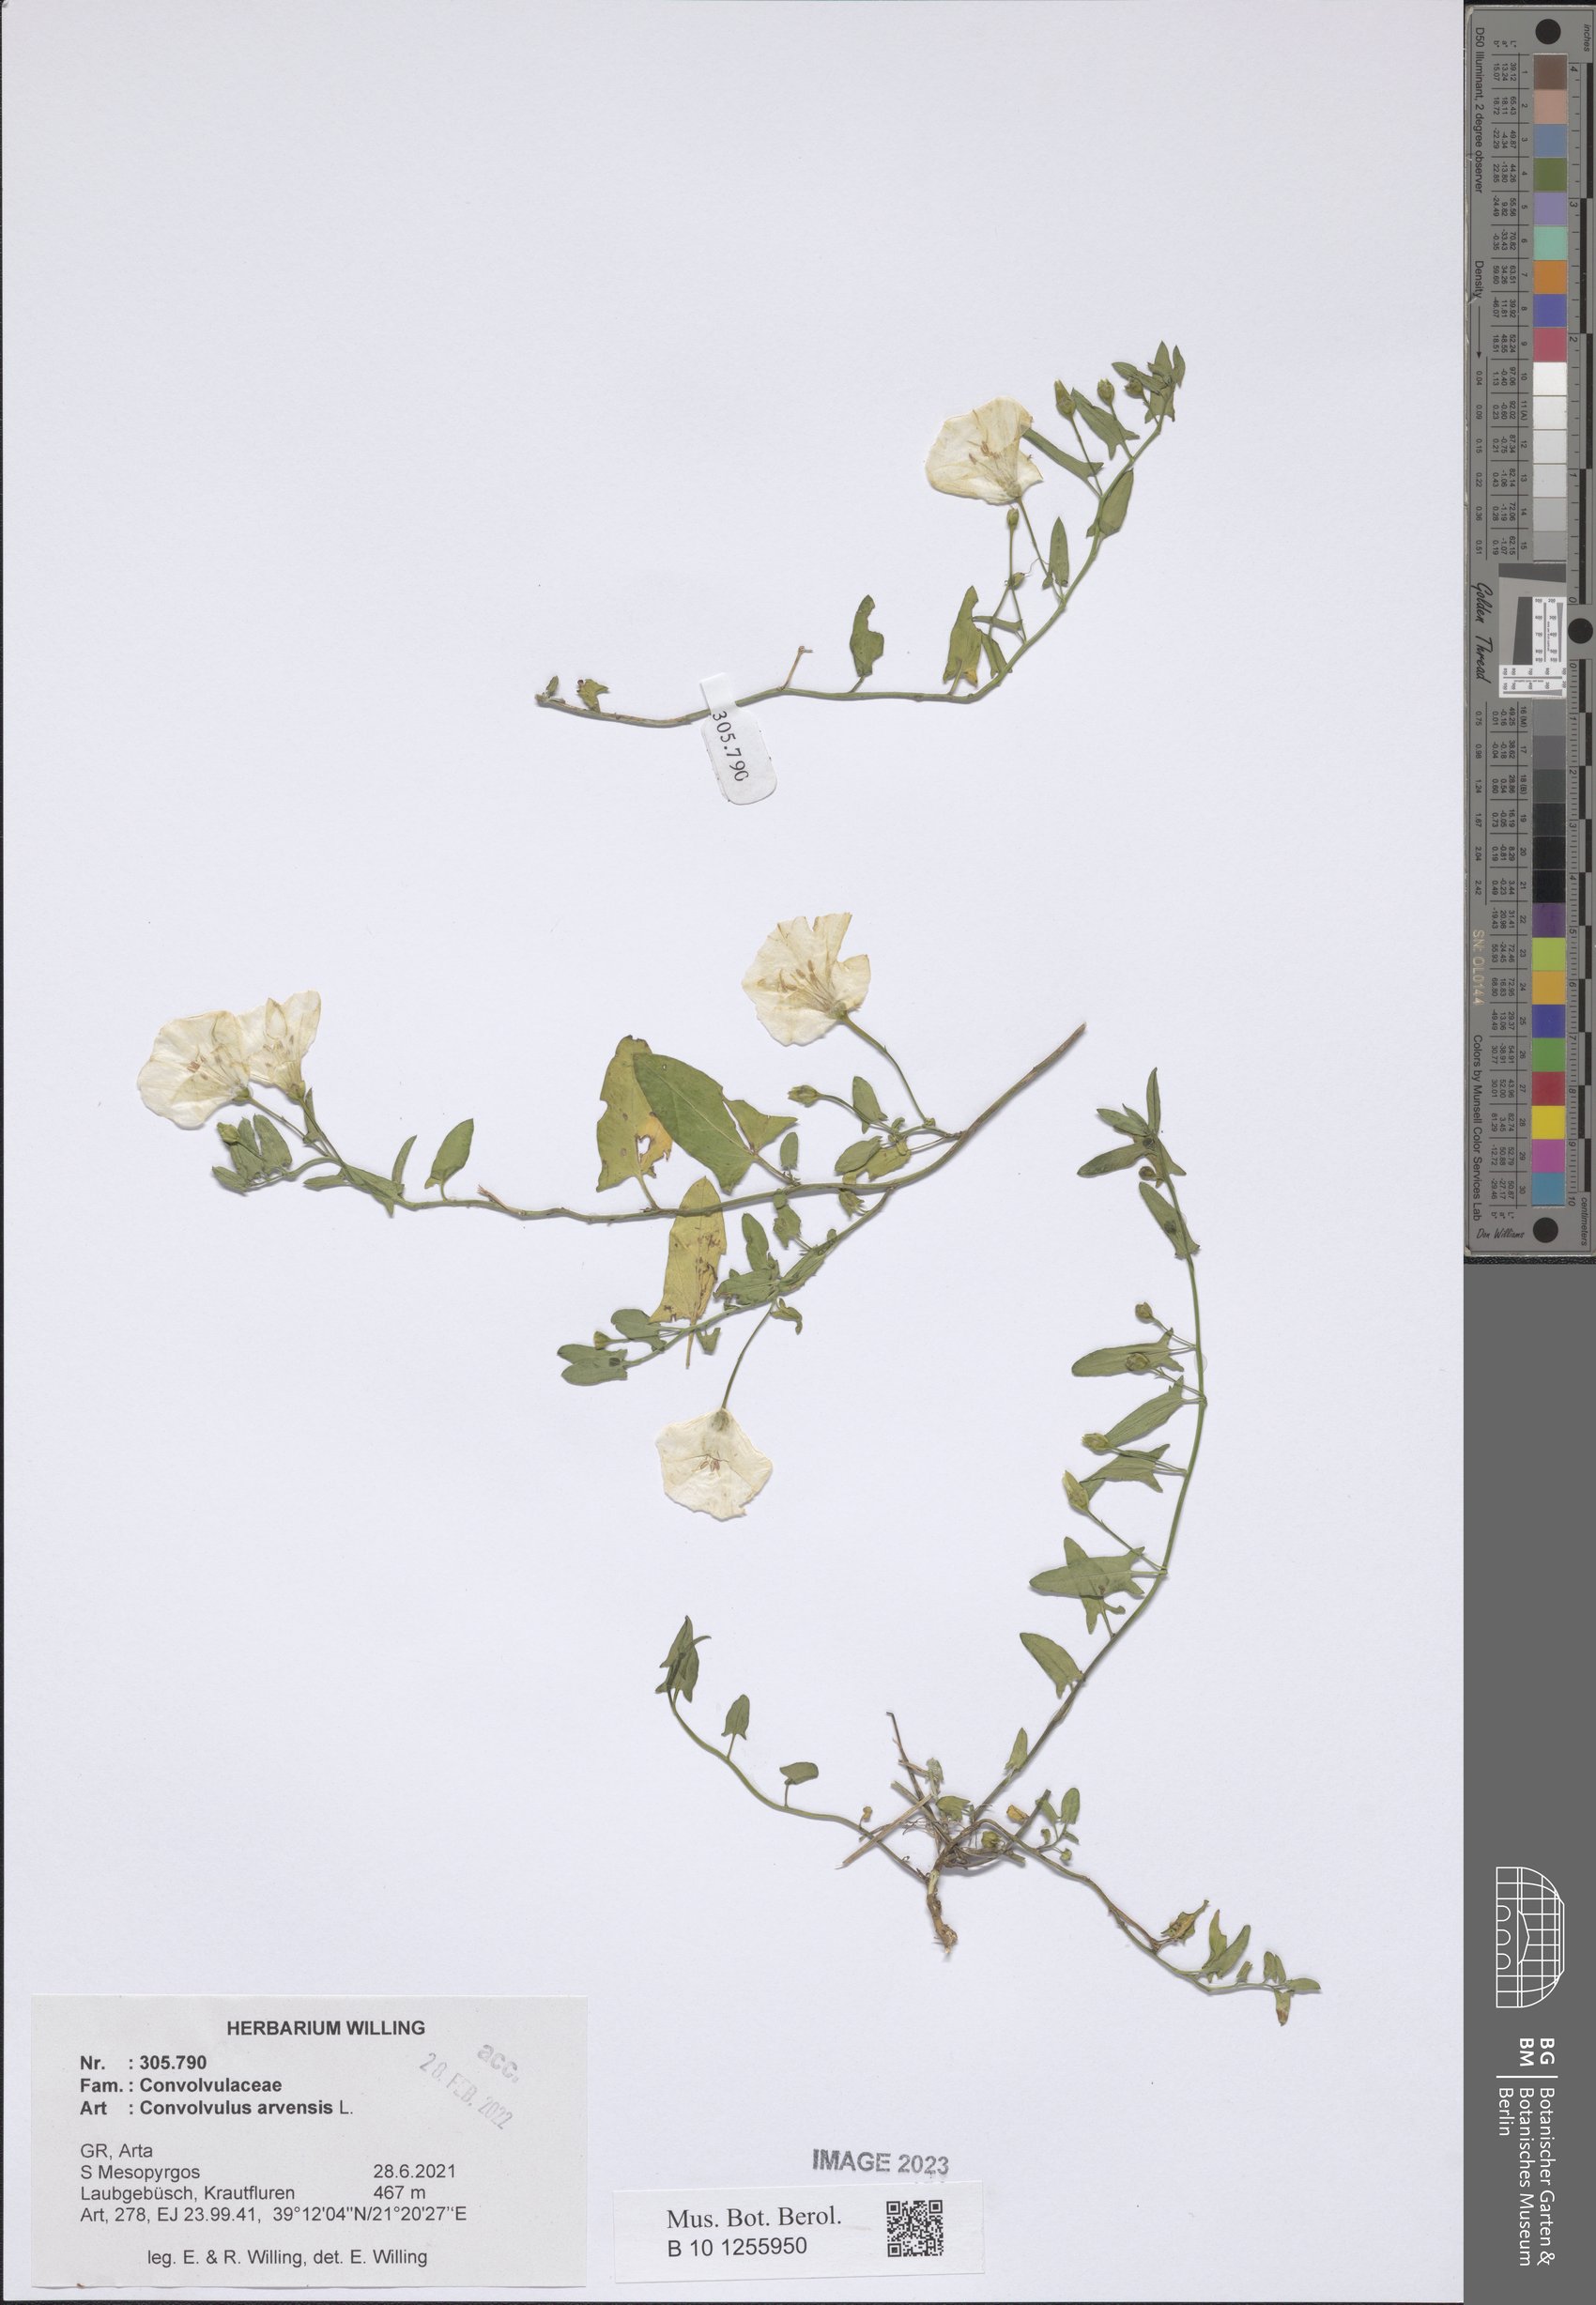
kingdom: Plantae
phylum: Tracheophyta
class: Magnoliopsida
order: Solanales
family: Convolvulaceae
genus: Convolvulus
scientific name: Convolvulus arvensis
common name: Field bindweed
